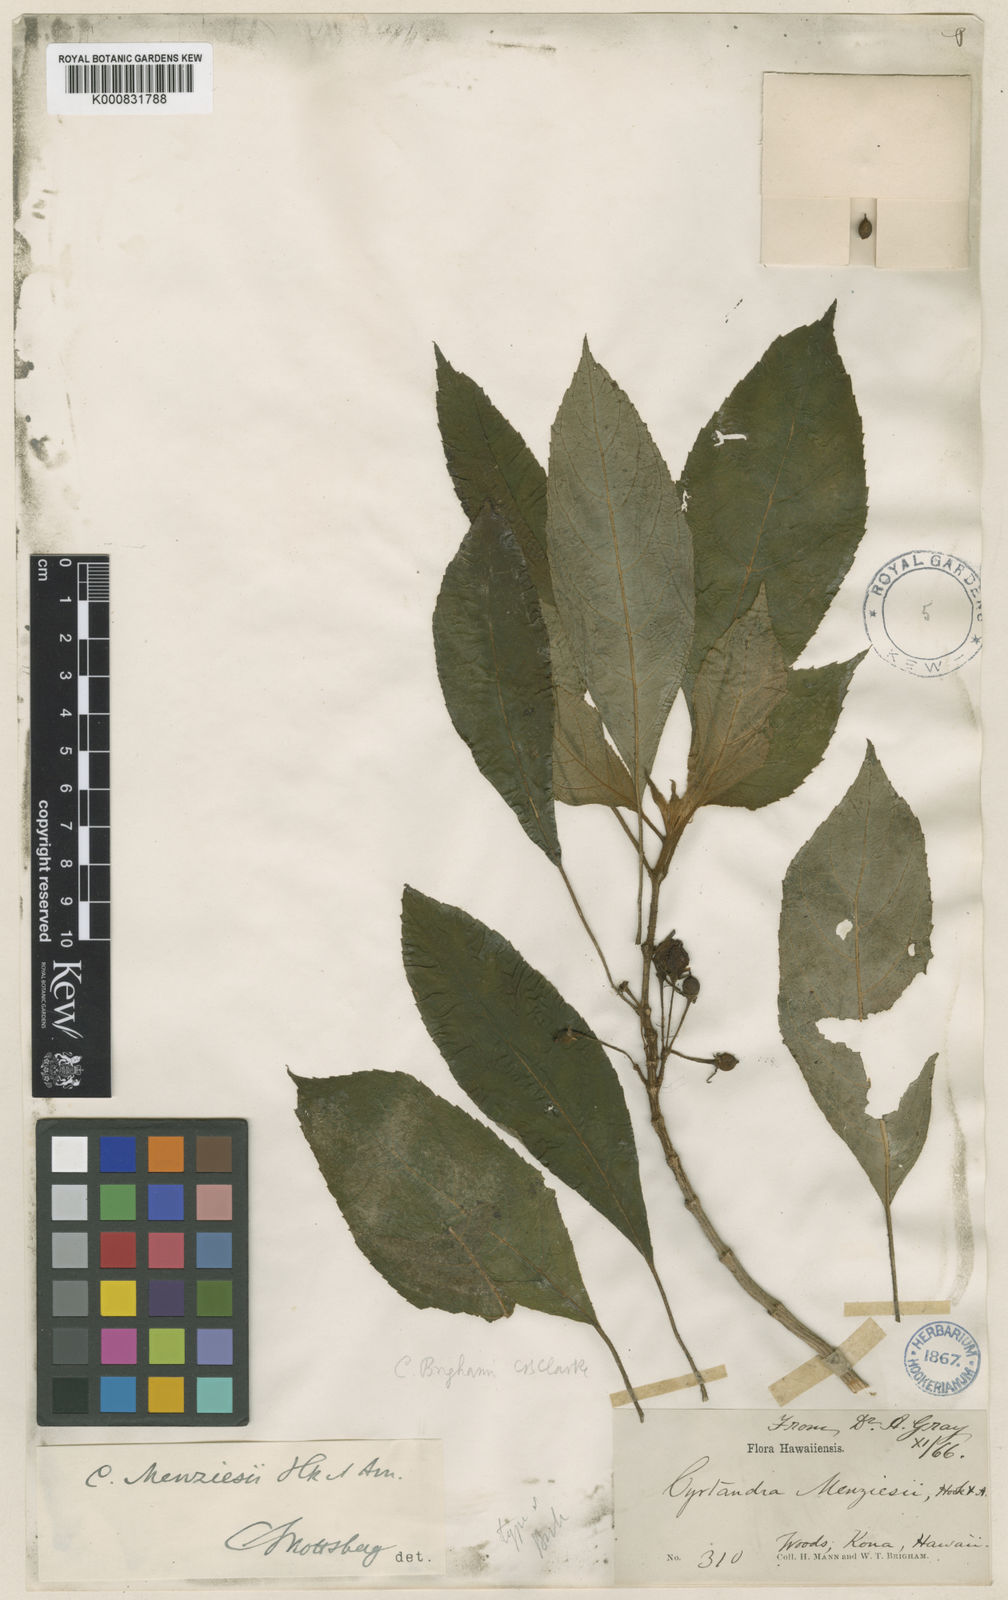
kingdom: Plantae
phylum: Tracheophyta
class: Magnoliopsida
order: Lamiales
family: Gesneriaceae
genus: Cyrtandra
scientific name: Cyrtandra menziesii
